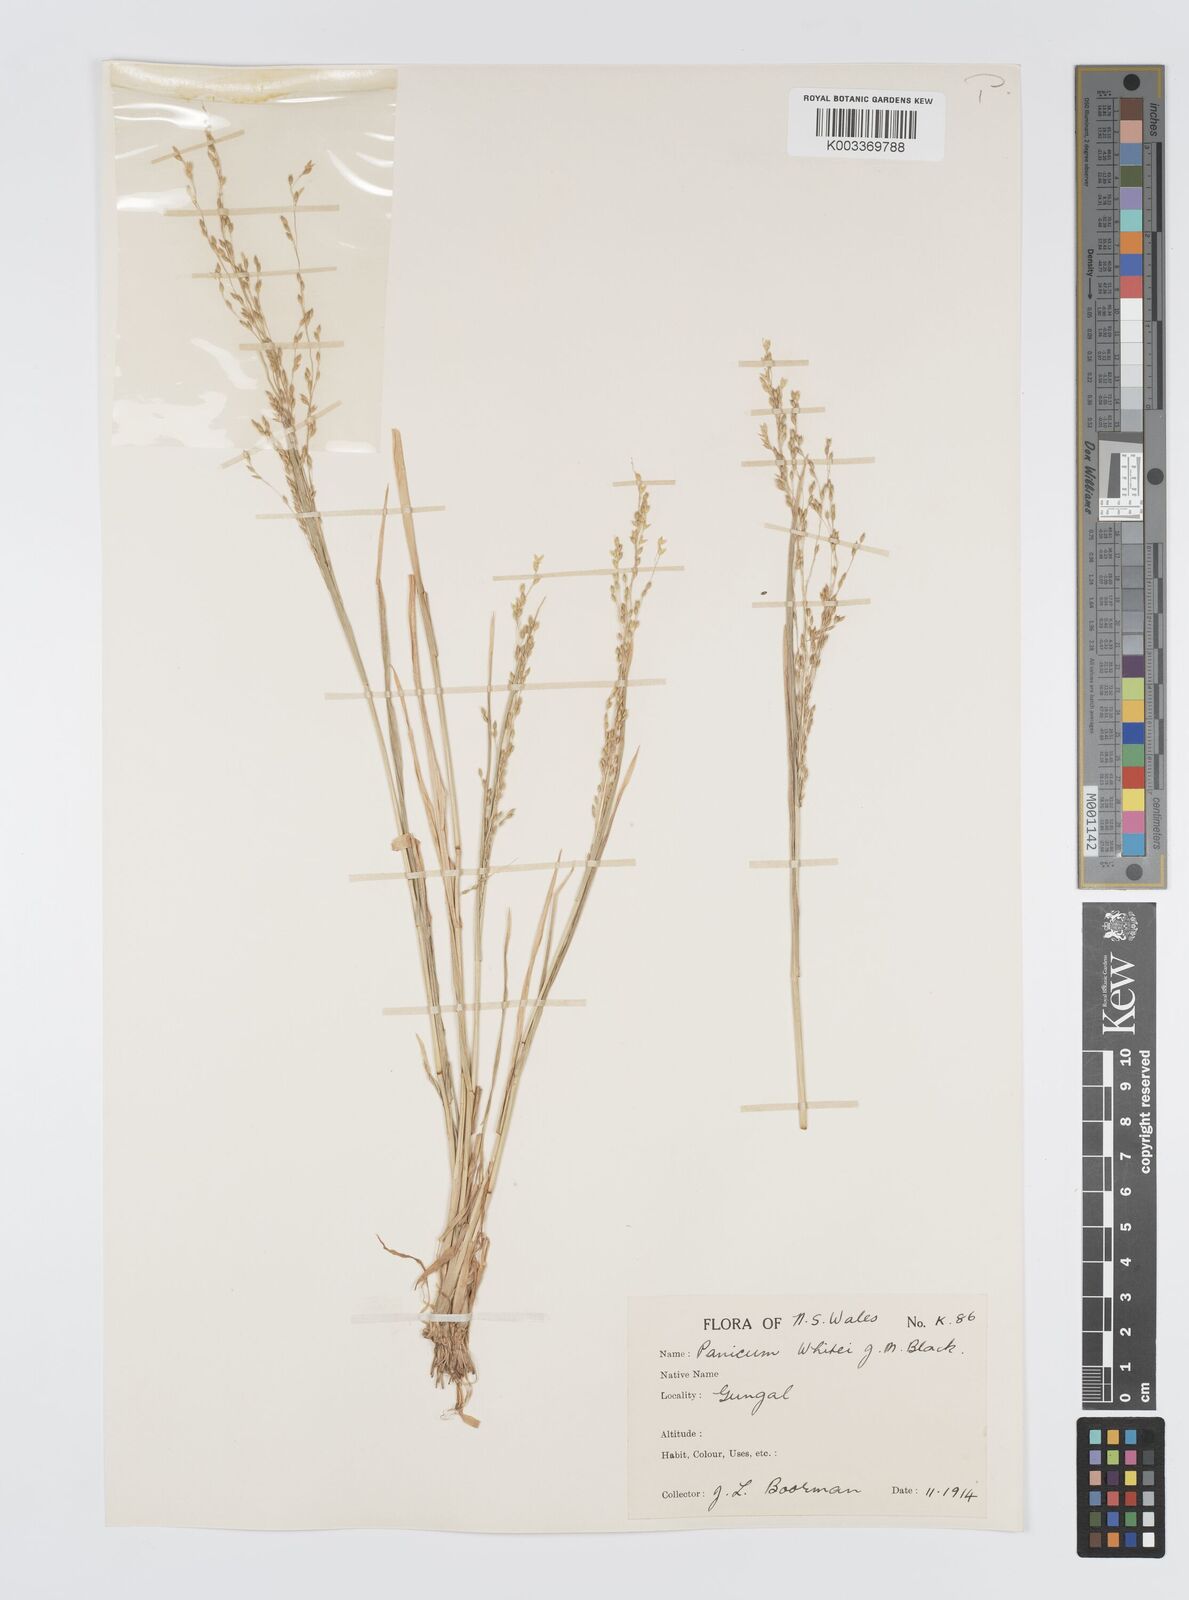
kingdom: Plantae
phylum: Tracheophyta
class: Liliopsida
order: Poales
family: Poaceae
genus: Panicum
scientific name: Panicum laevinode
